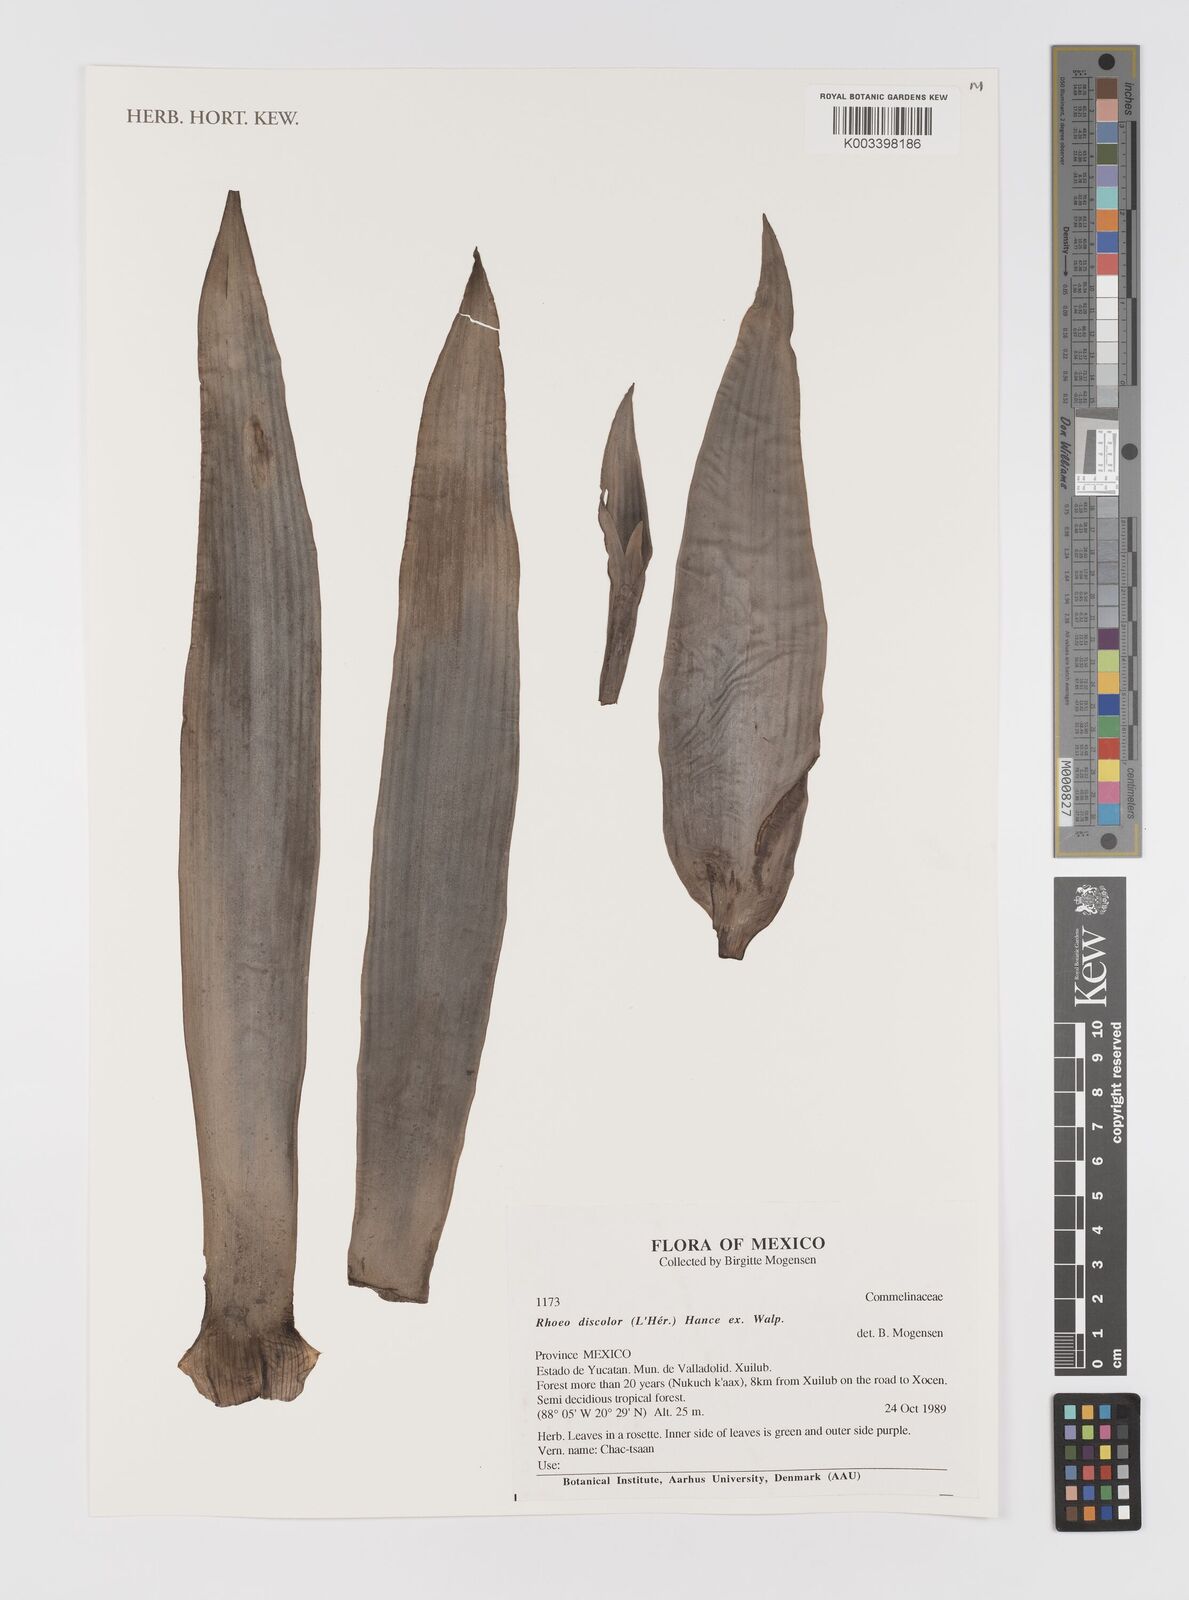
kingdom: Plantae
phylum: Tracheophyta
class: Liliopsida
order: Commelinales
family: Commelinaceae
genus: Tradescantia
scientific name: Tradescantia spathacea
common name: Boatlily
